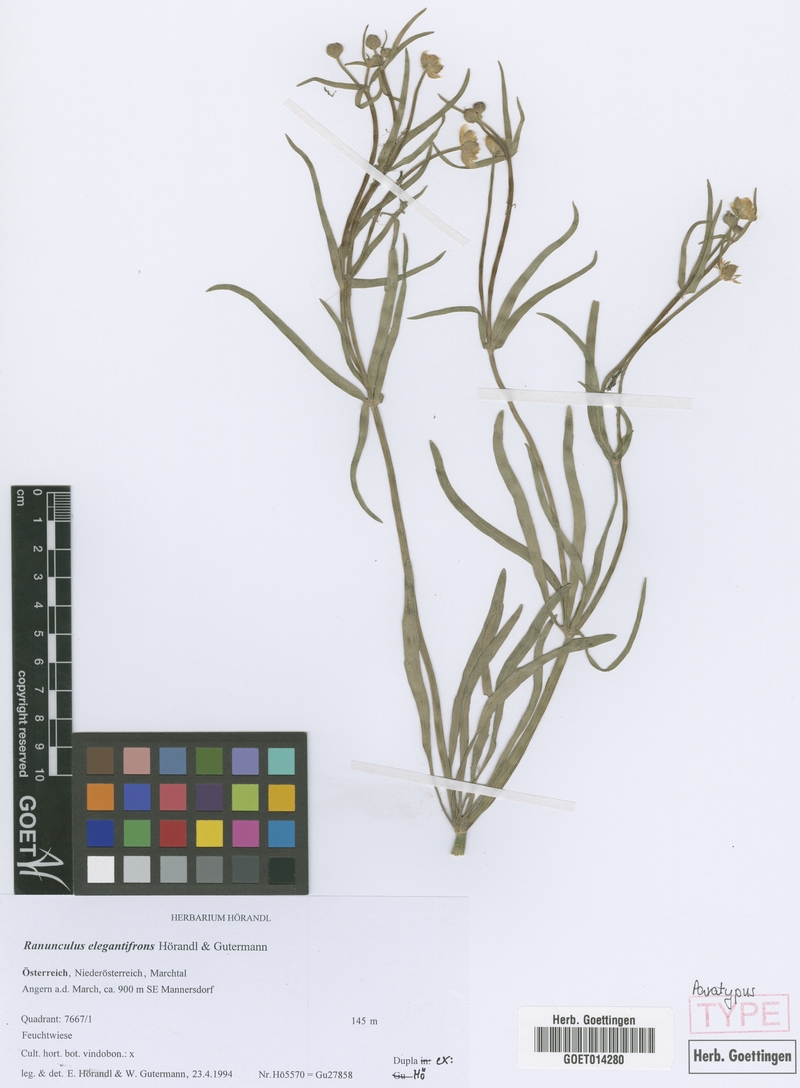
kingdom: Plantae
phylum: Tracheophyta
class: Magnoliopsida
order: Ranunculales
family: Ranunculaceae
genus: Ranunculus
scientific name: Ranunculus elegantifrons
